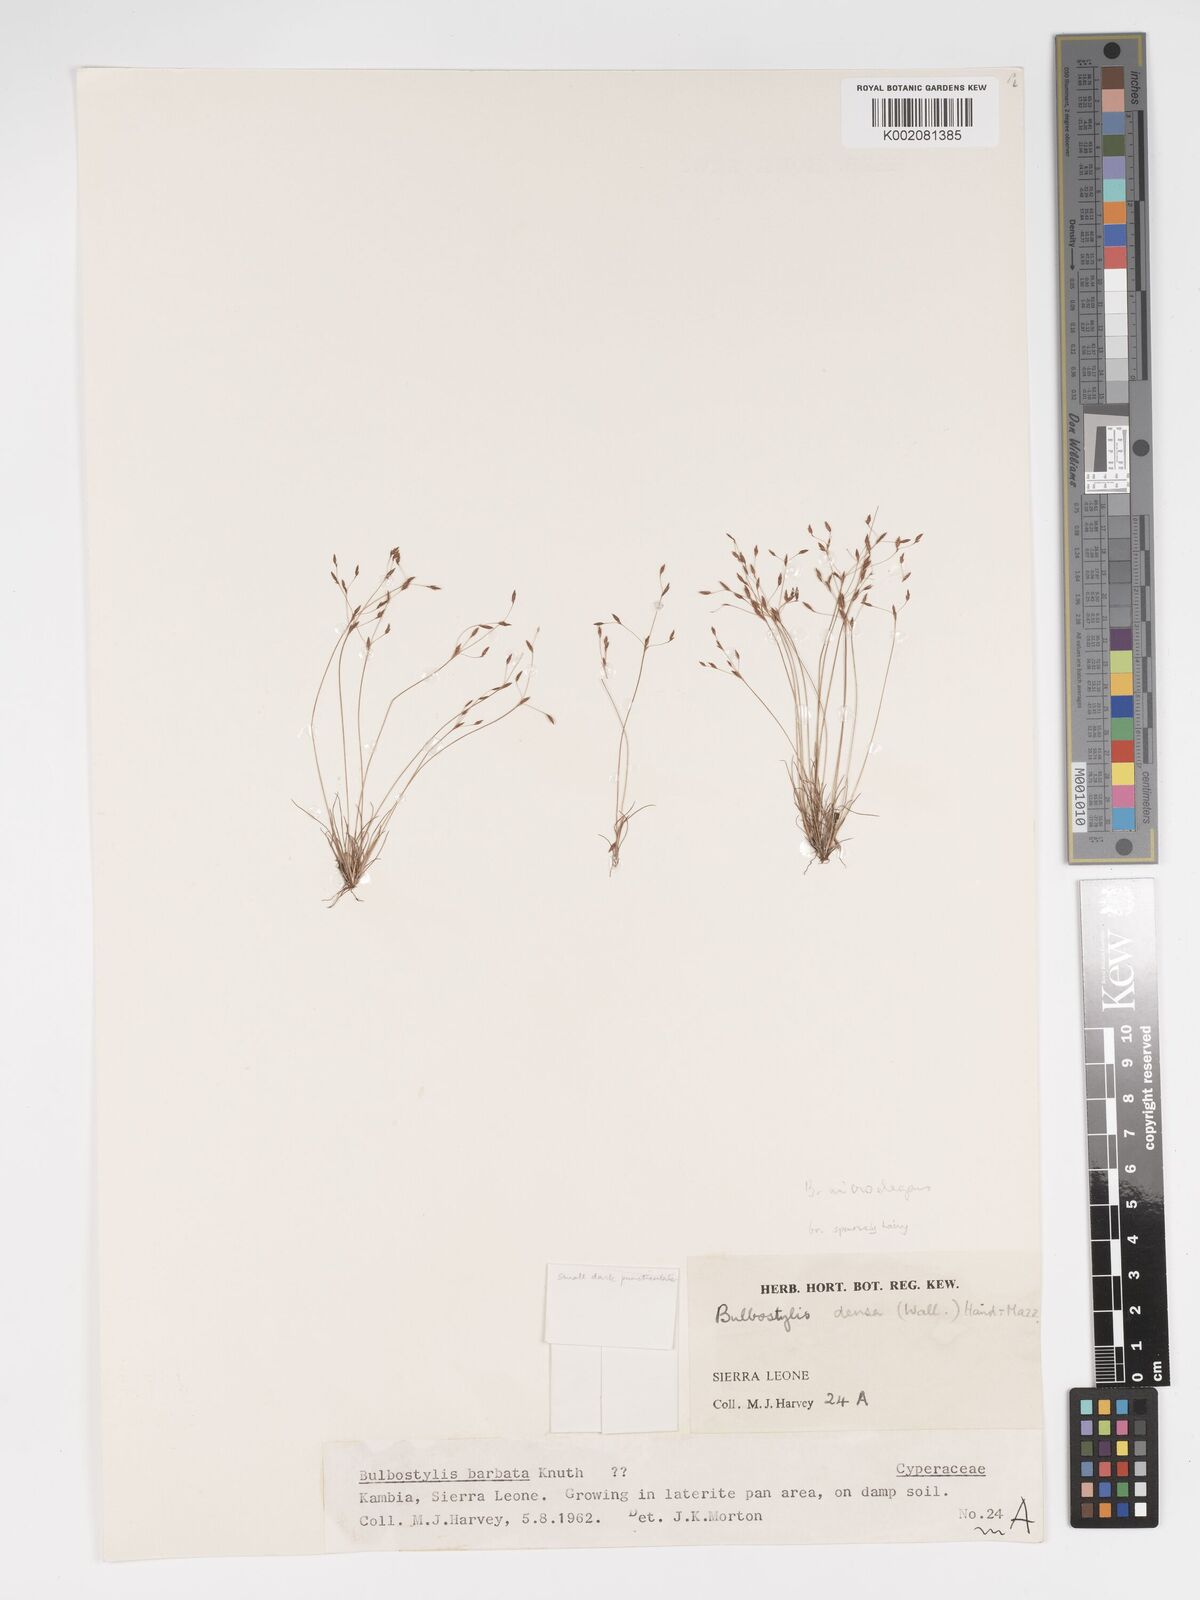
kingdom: Plantae
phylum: Tracheophyta
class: Liliopsida
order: Poales
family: Cyperaceae
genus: Bulbostylis
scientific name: Bulbostylis
